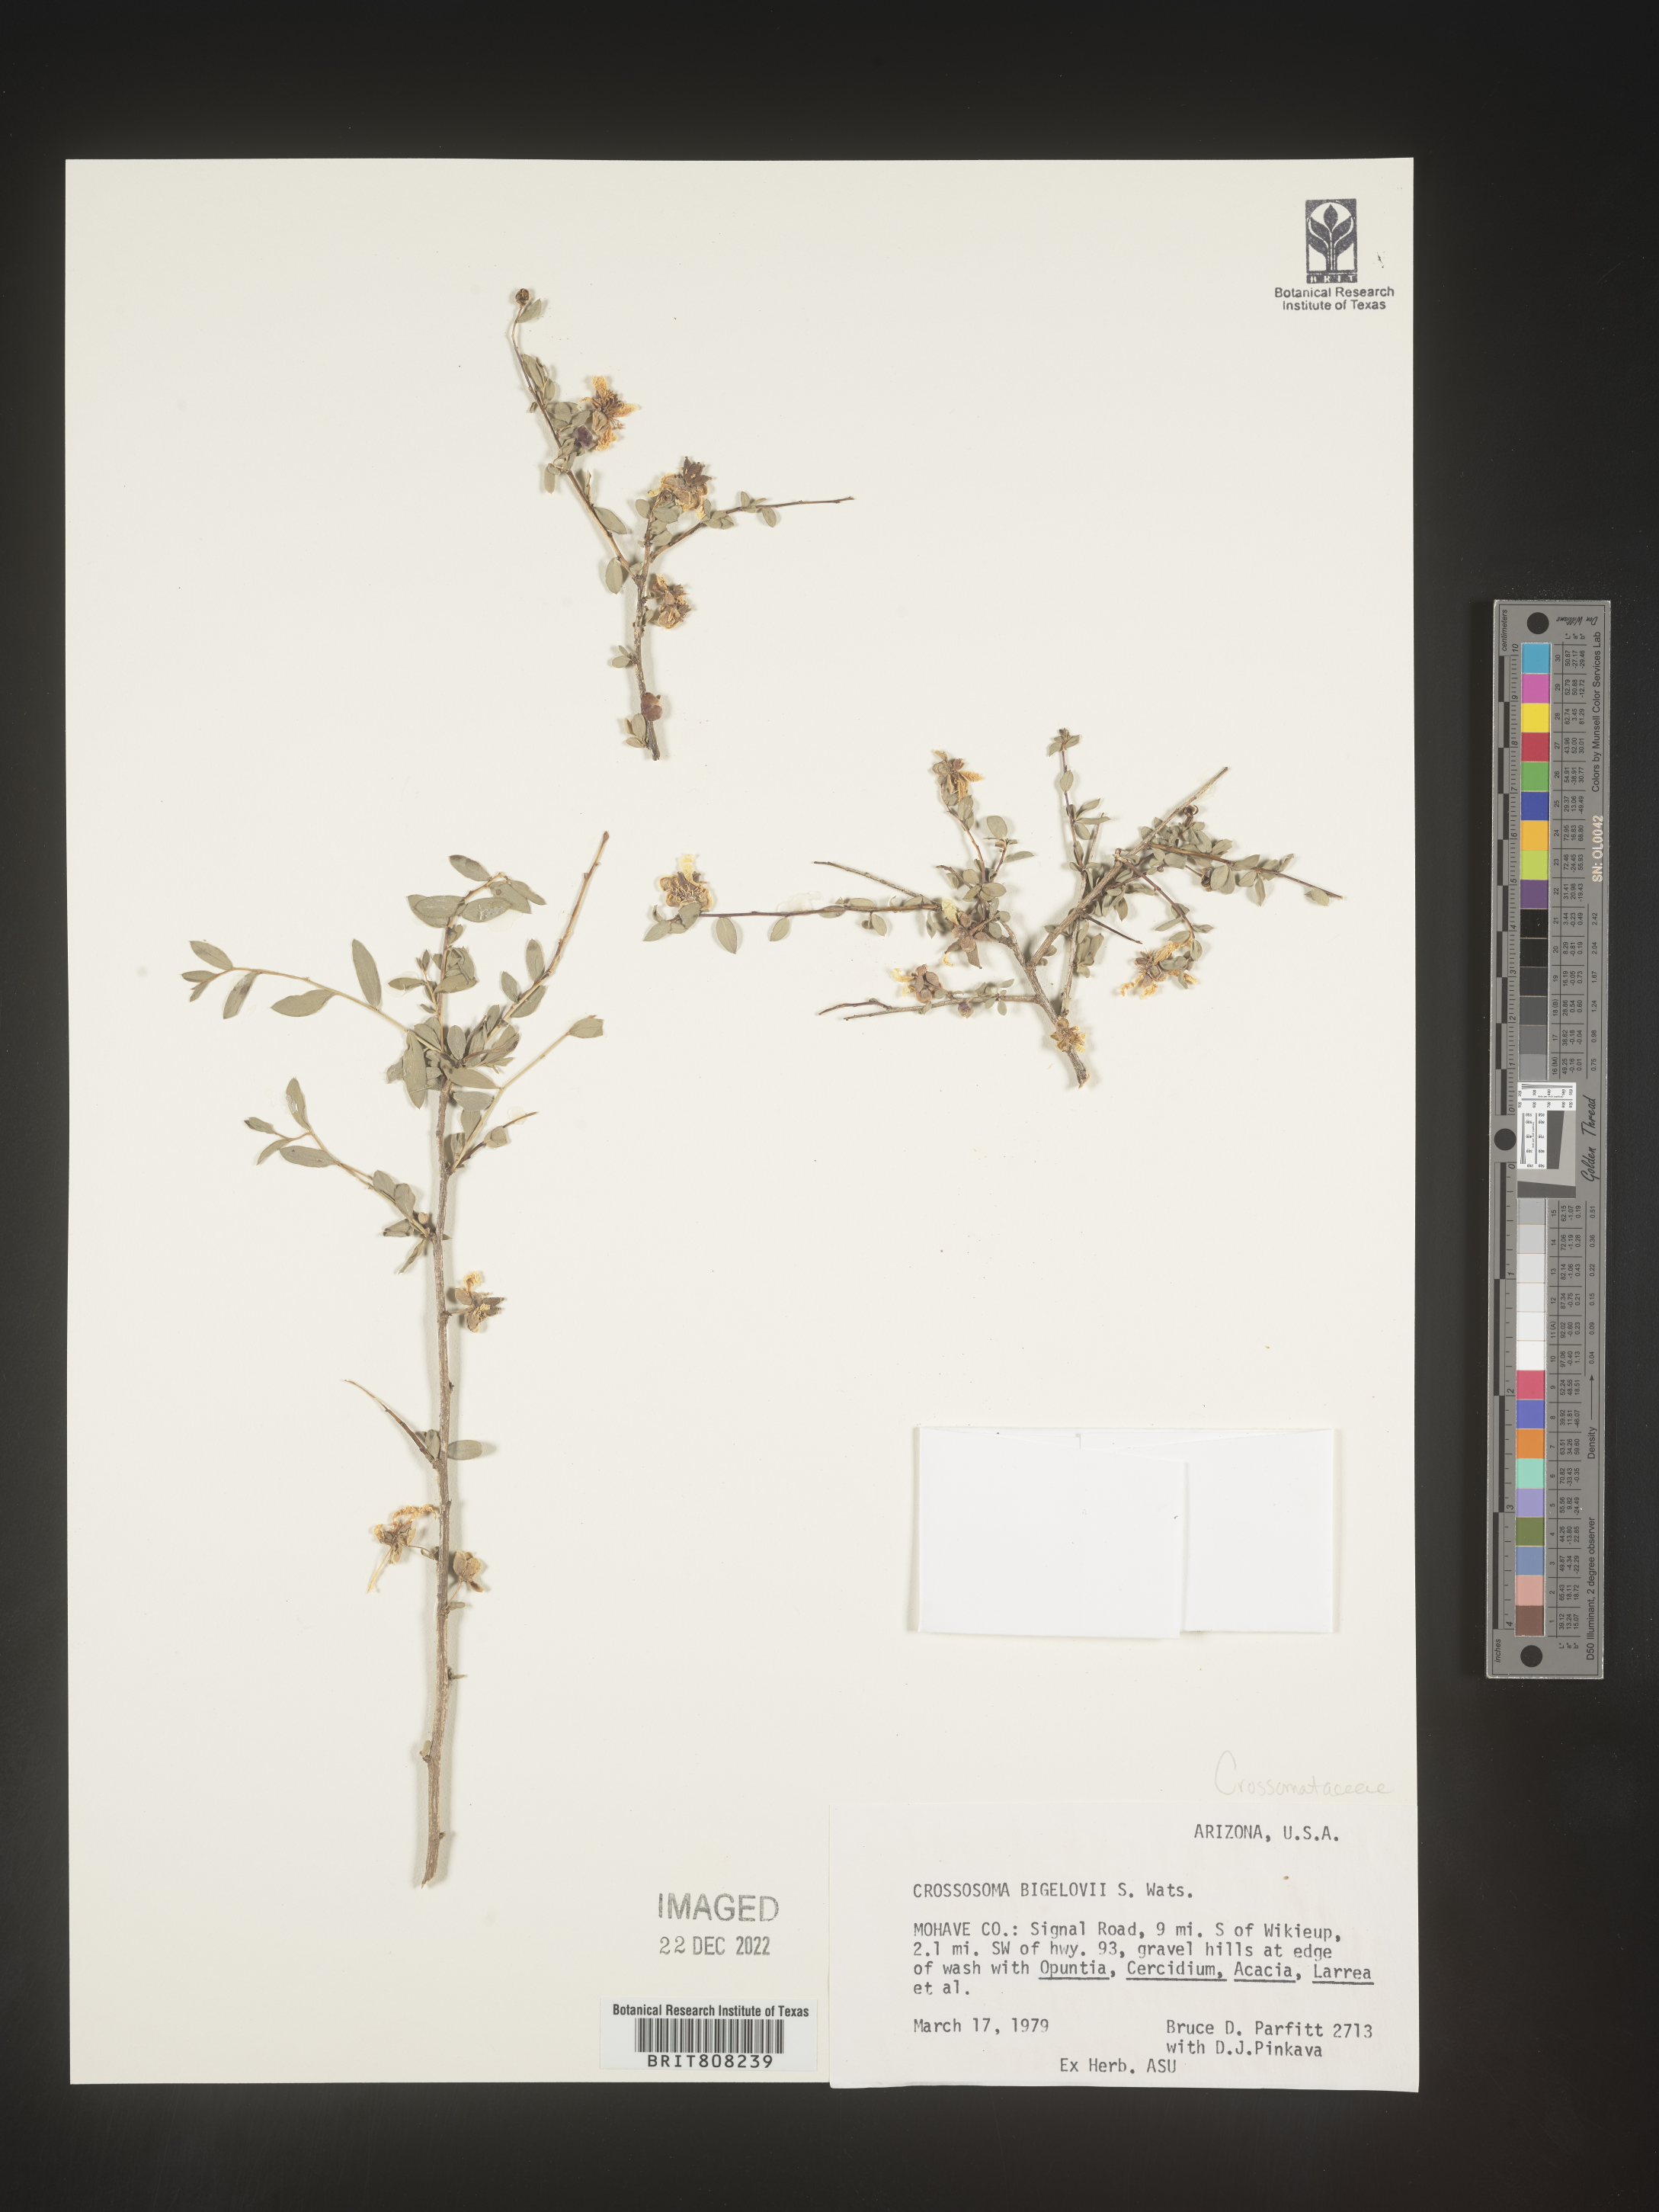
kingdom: Plantae
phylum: Tracheophyta
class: Magnoliopsida
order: Crossosomatales
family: Crossosomataceae
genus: Crossosoma
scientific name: Crossosoma bigelovii
